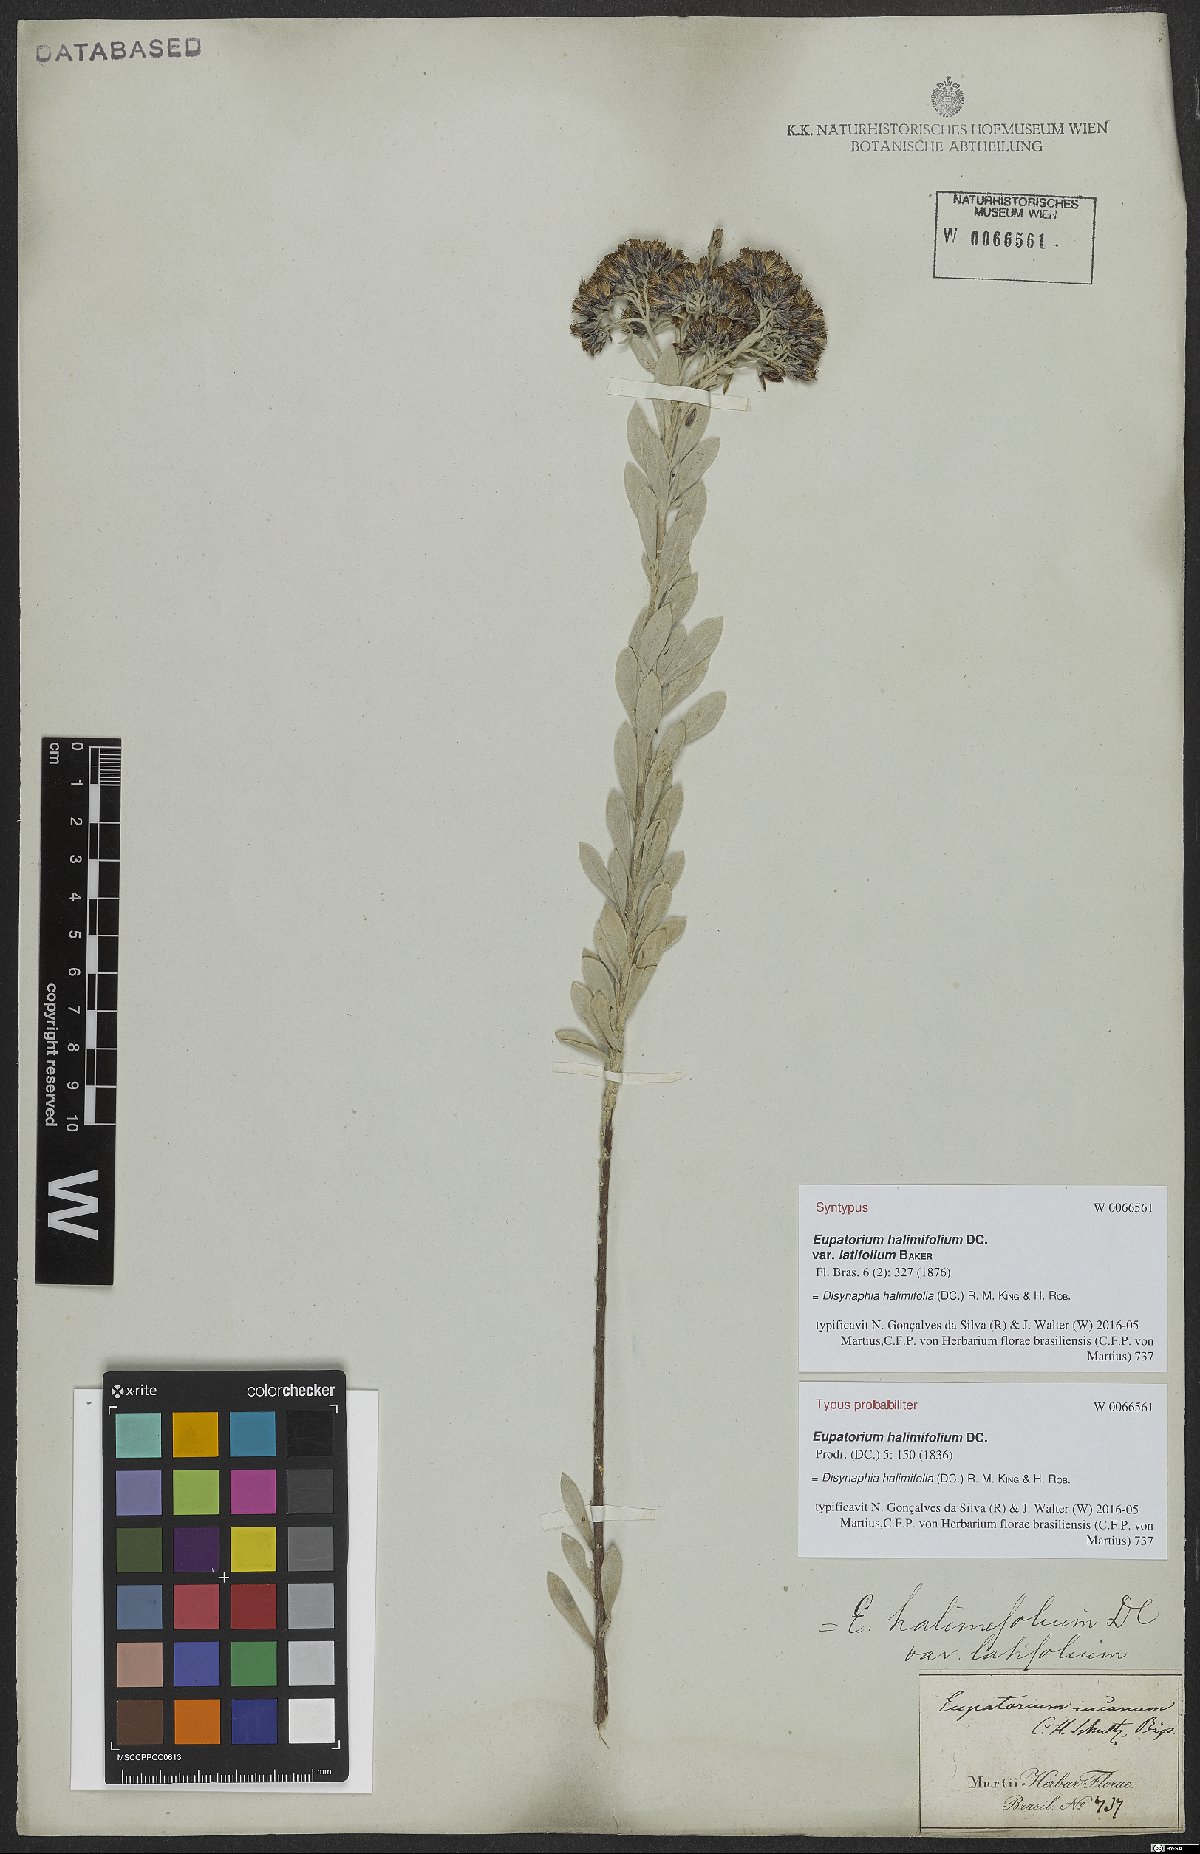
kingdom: Plantae
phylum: Tracheophyta
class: Magnoliopsida
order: Asterales
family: Asteraceae
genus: Disynaphia
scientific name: Disynaphia halimifolia
